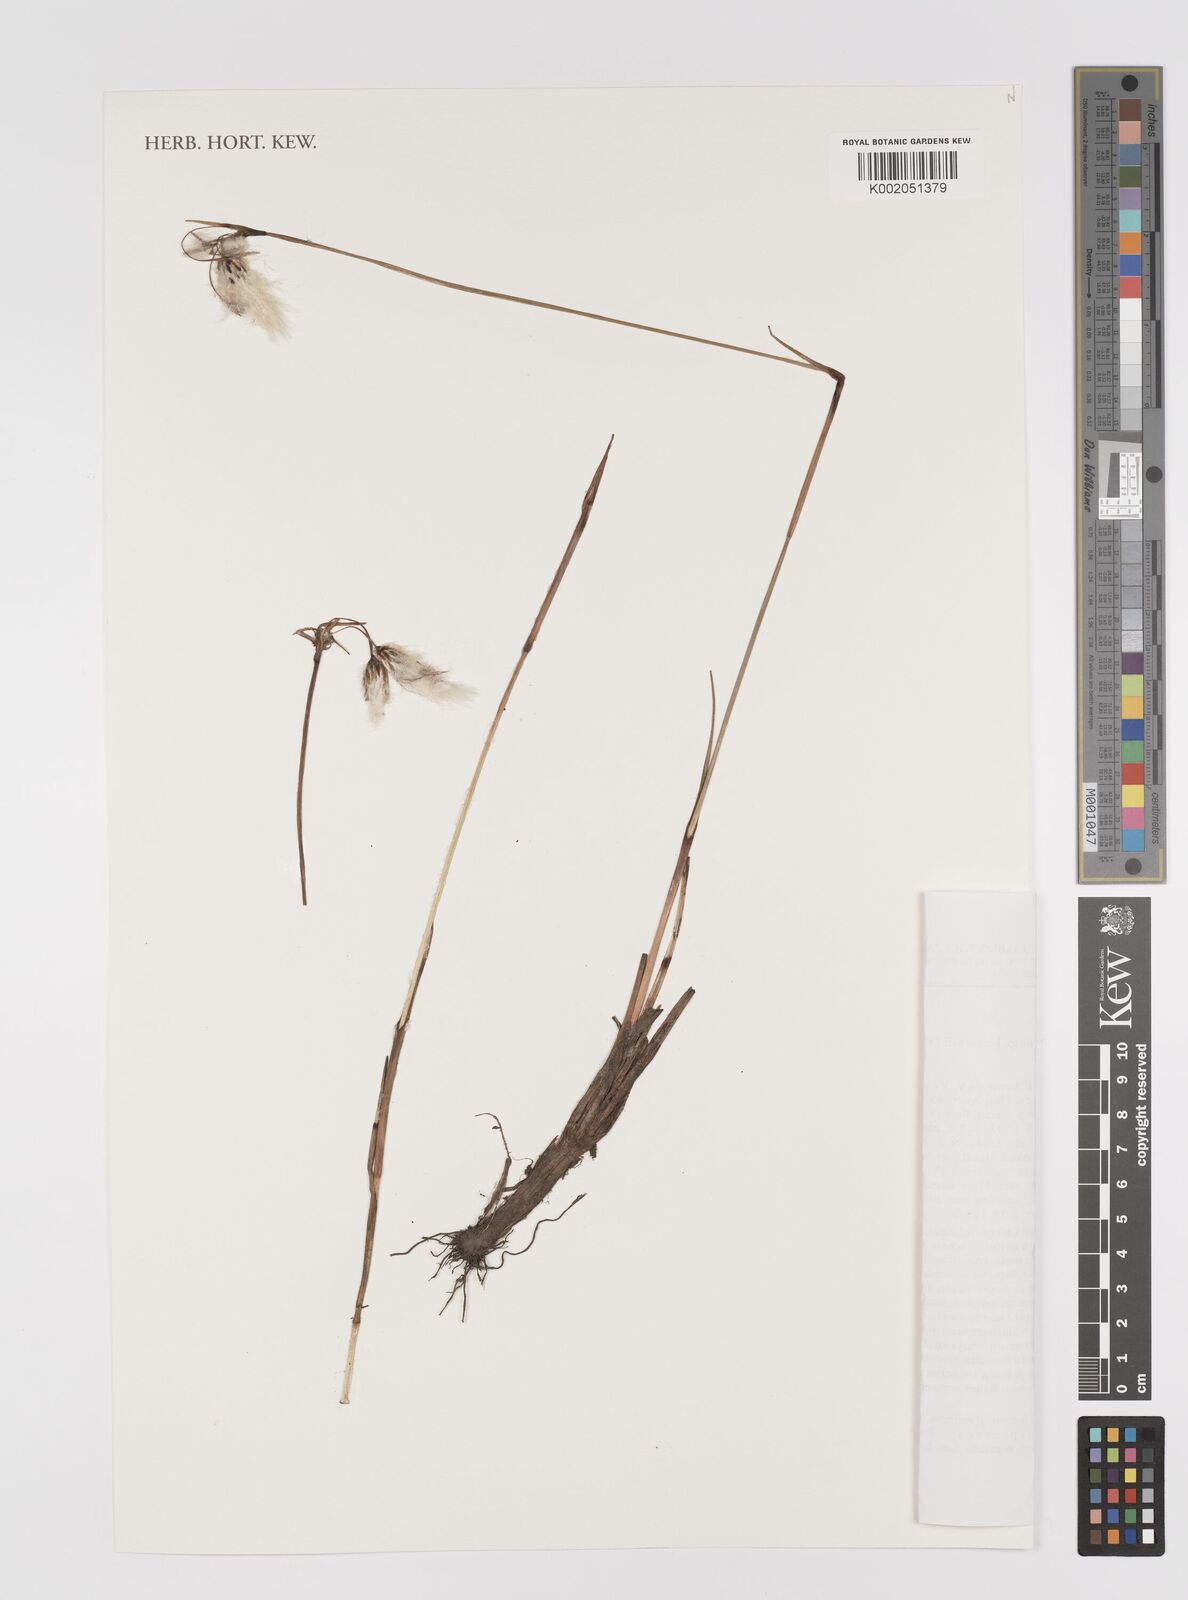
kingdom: Plantae
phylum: Tracheophyta
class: Liliopsida
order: Poales
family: Cyperaceae
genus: Eriophorum
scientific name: Eriophorum angustifolium
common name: Common cottongrass
